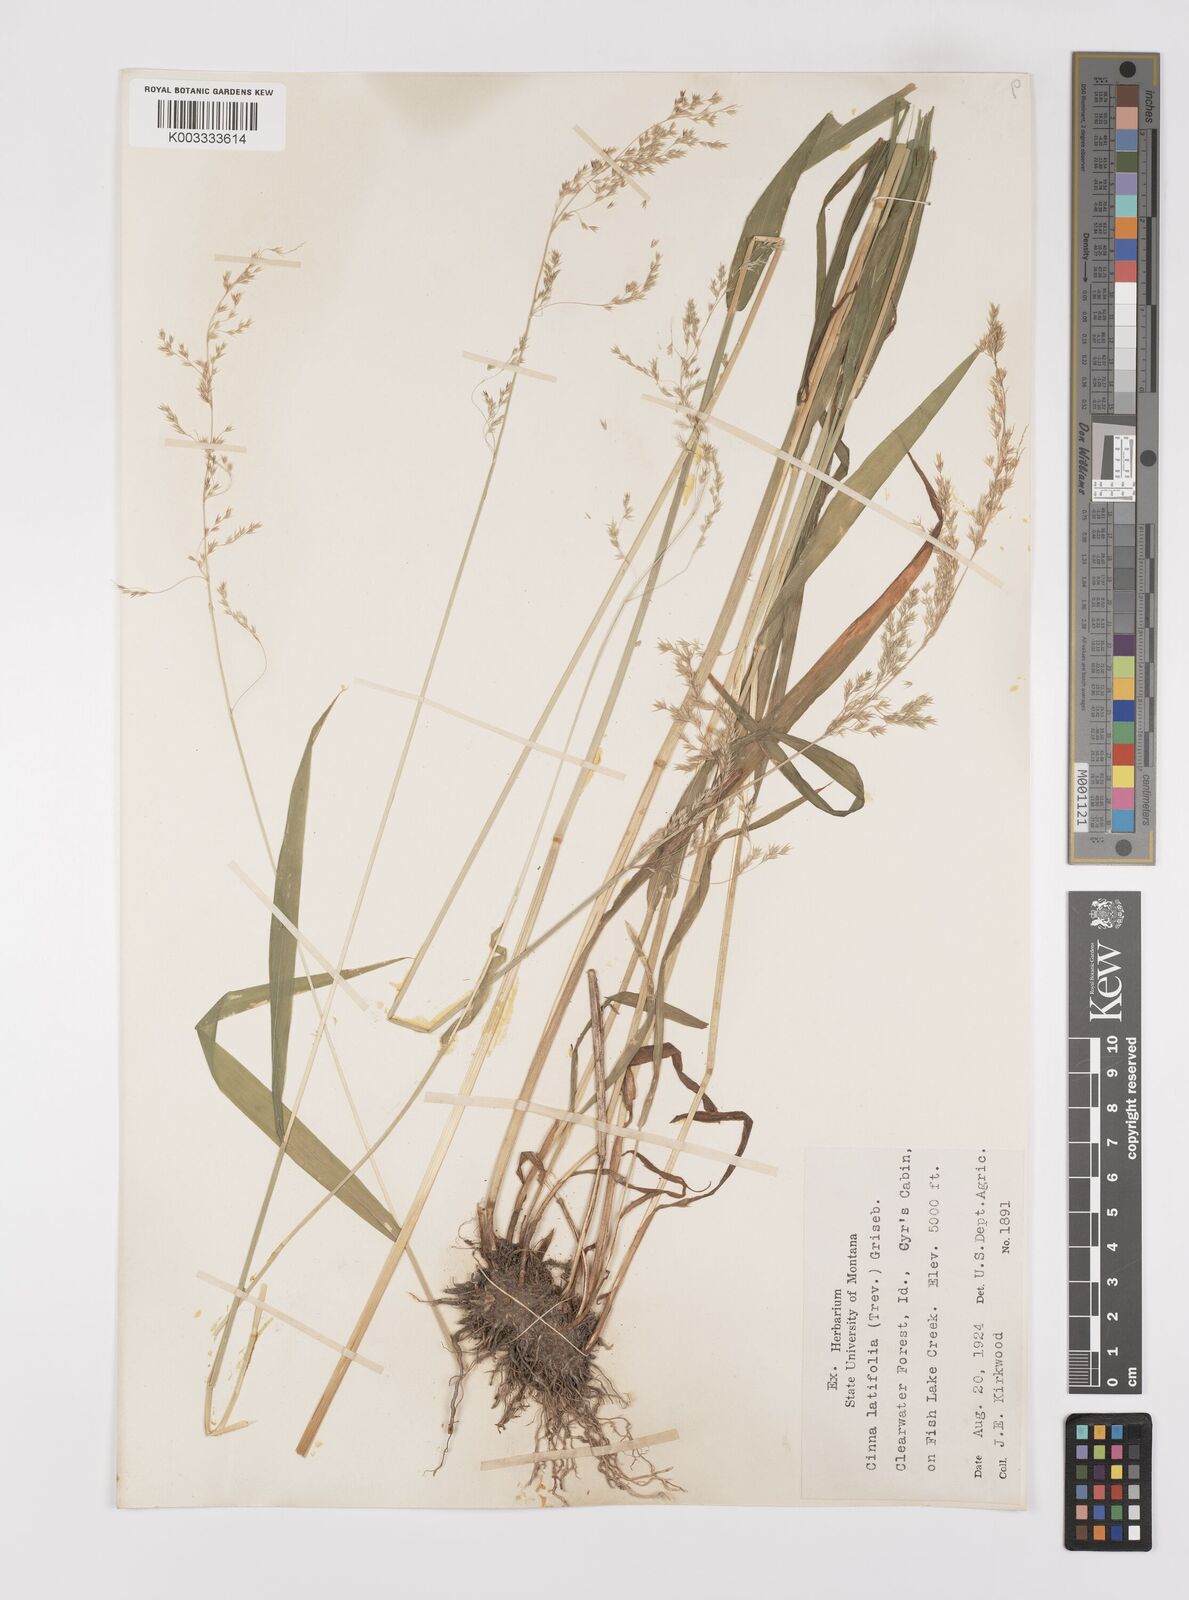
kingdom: Plantae
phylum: Tracheophyta
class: Liliopsida
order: Poales
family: Poaceae
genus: Cinna
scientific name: Cinna latifolia
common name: Drooping woodreed
